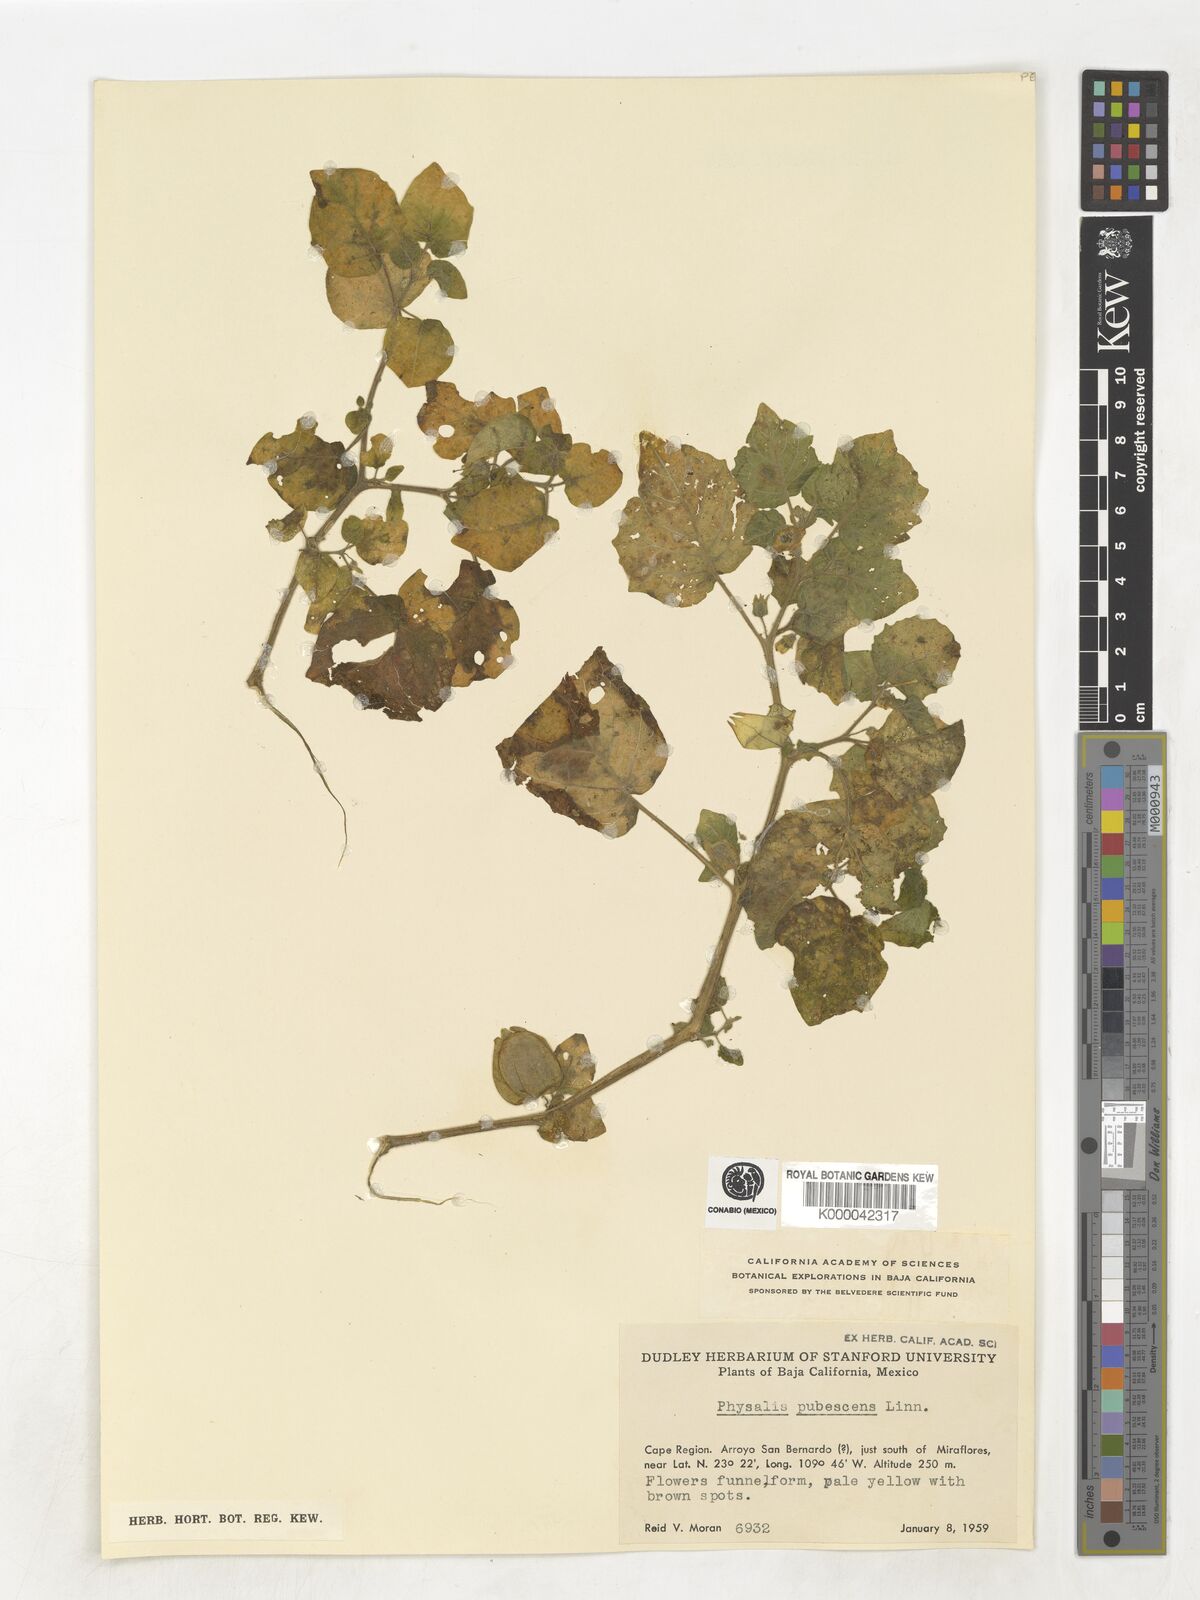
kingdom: Plantae
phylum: Tracheophyta
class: Magnoliopsida
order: Solanales
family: Solanaceae
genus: Physalis
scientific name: Physalis pubescens
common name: Downy ground-cherry
